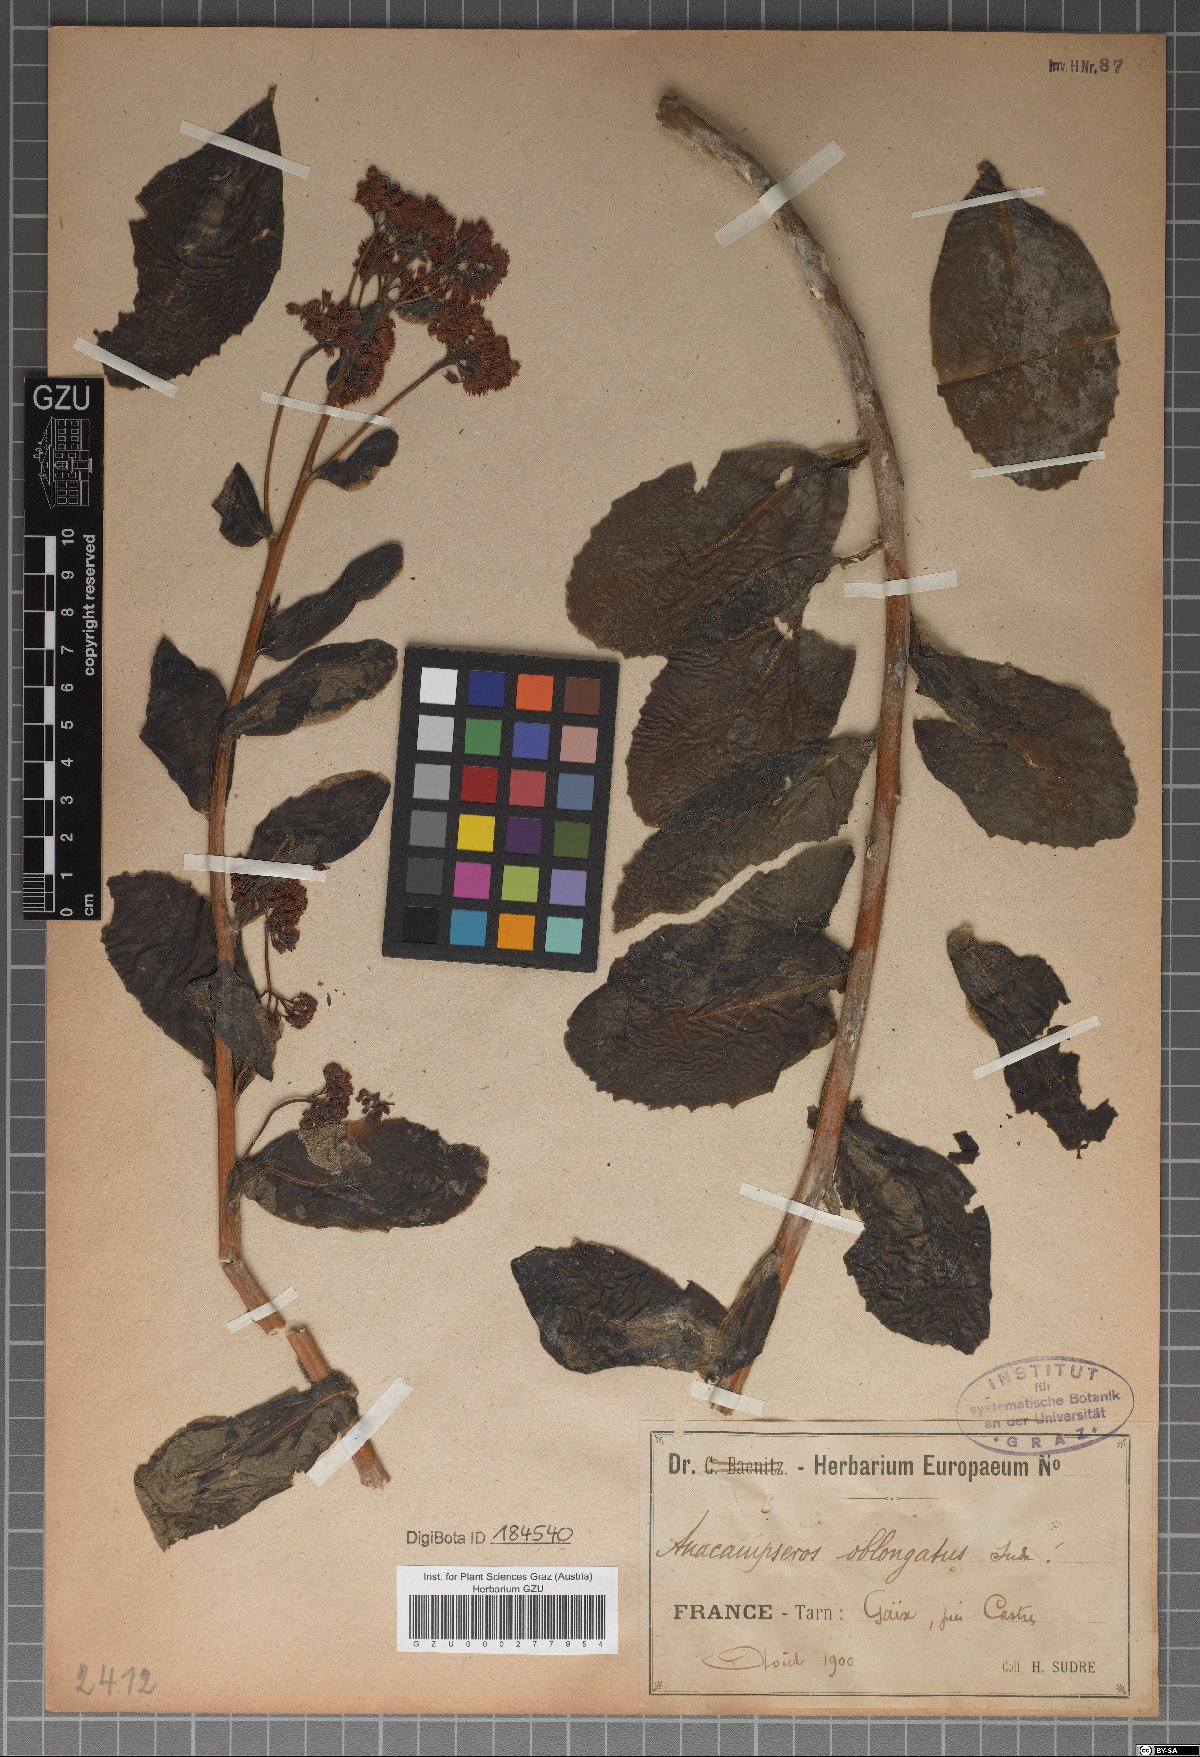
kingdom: Plantae
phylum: Tracheophyta
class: Magnoliopsida
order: Saxifragales
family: Crassulaceae
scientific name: Crassulaceae
